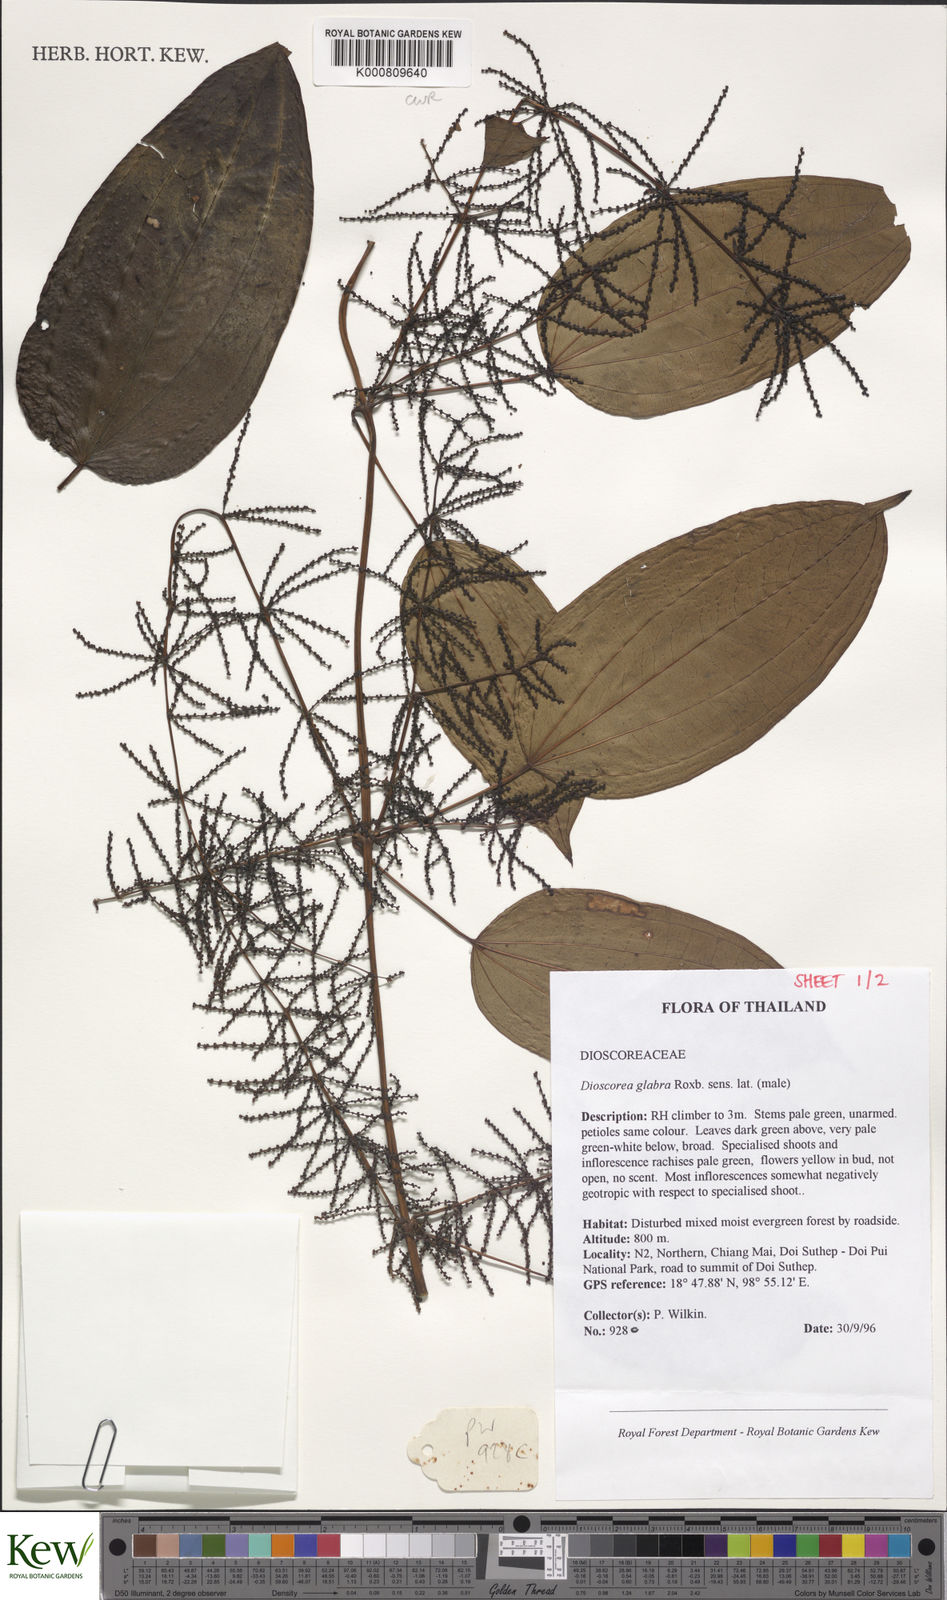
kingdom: Plantae
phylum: Tracheophyta
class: Liliopsida
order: Dioscoreales
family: Dioscoreaceae
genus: Dioscorea
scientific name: Dioscorea glabra
